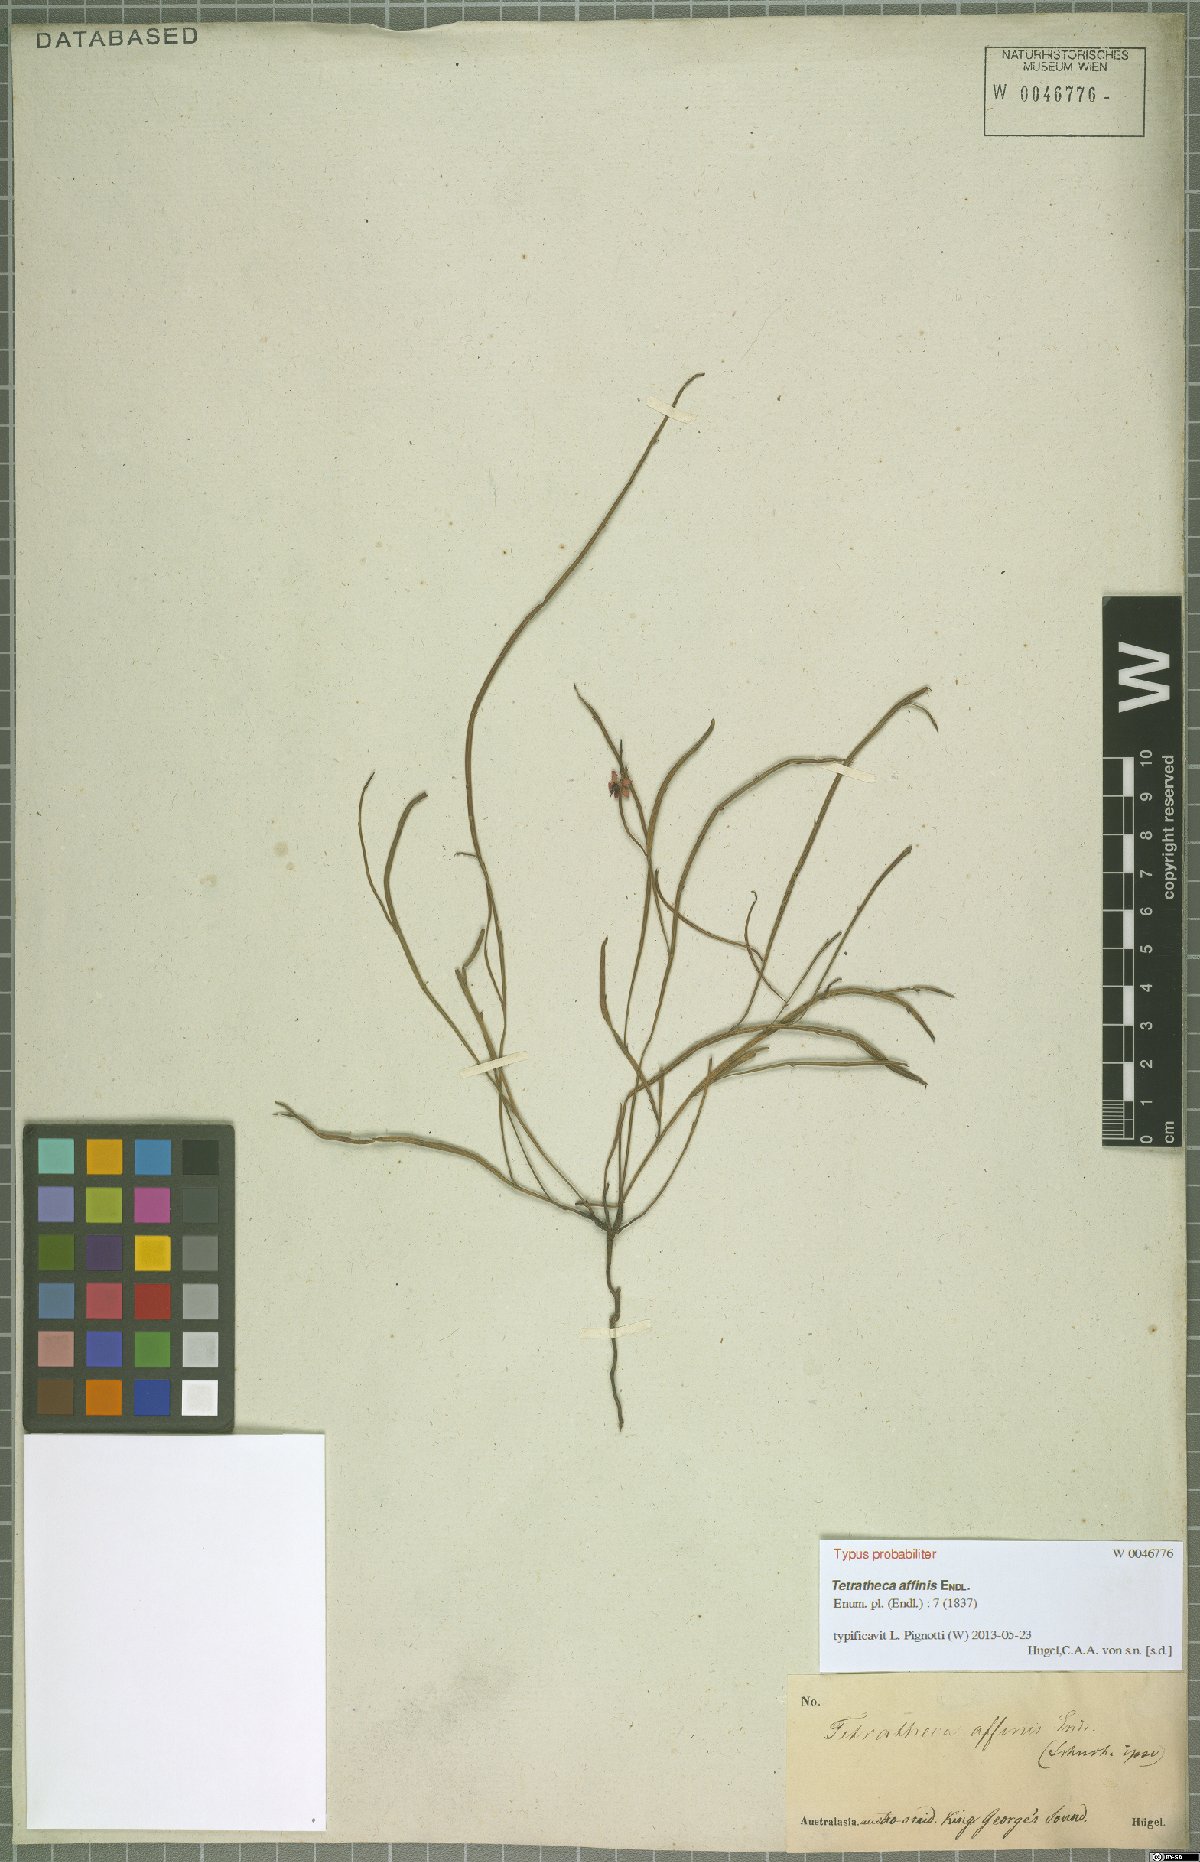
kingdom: Plantae
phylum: Tracheophyta
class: Magnoliopsida
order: Oxalidales
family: Elaeocarpaceae
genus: Tetratheca
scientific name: Tetratheca affinis
